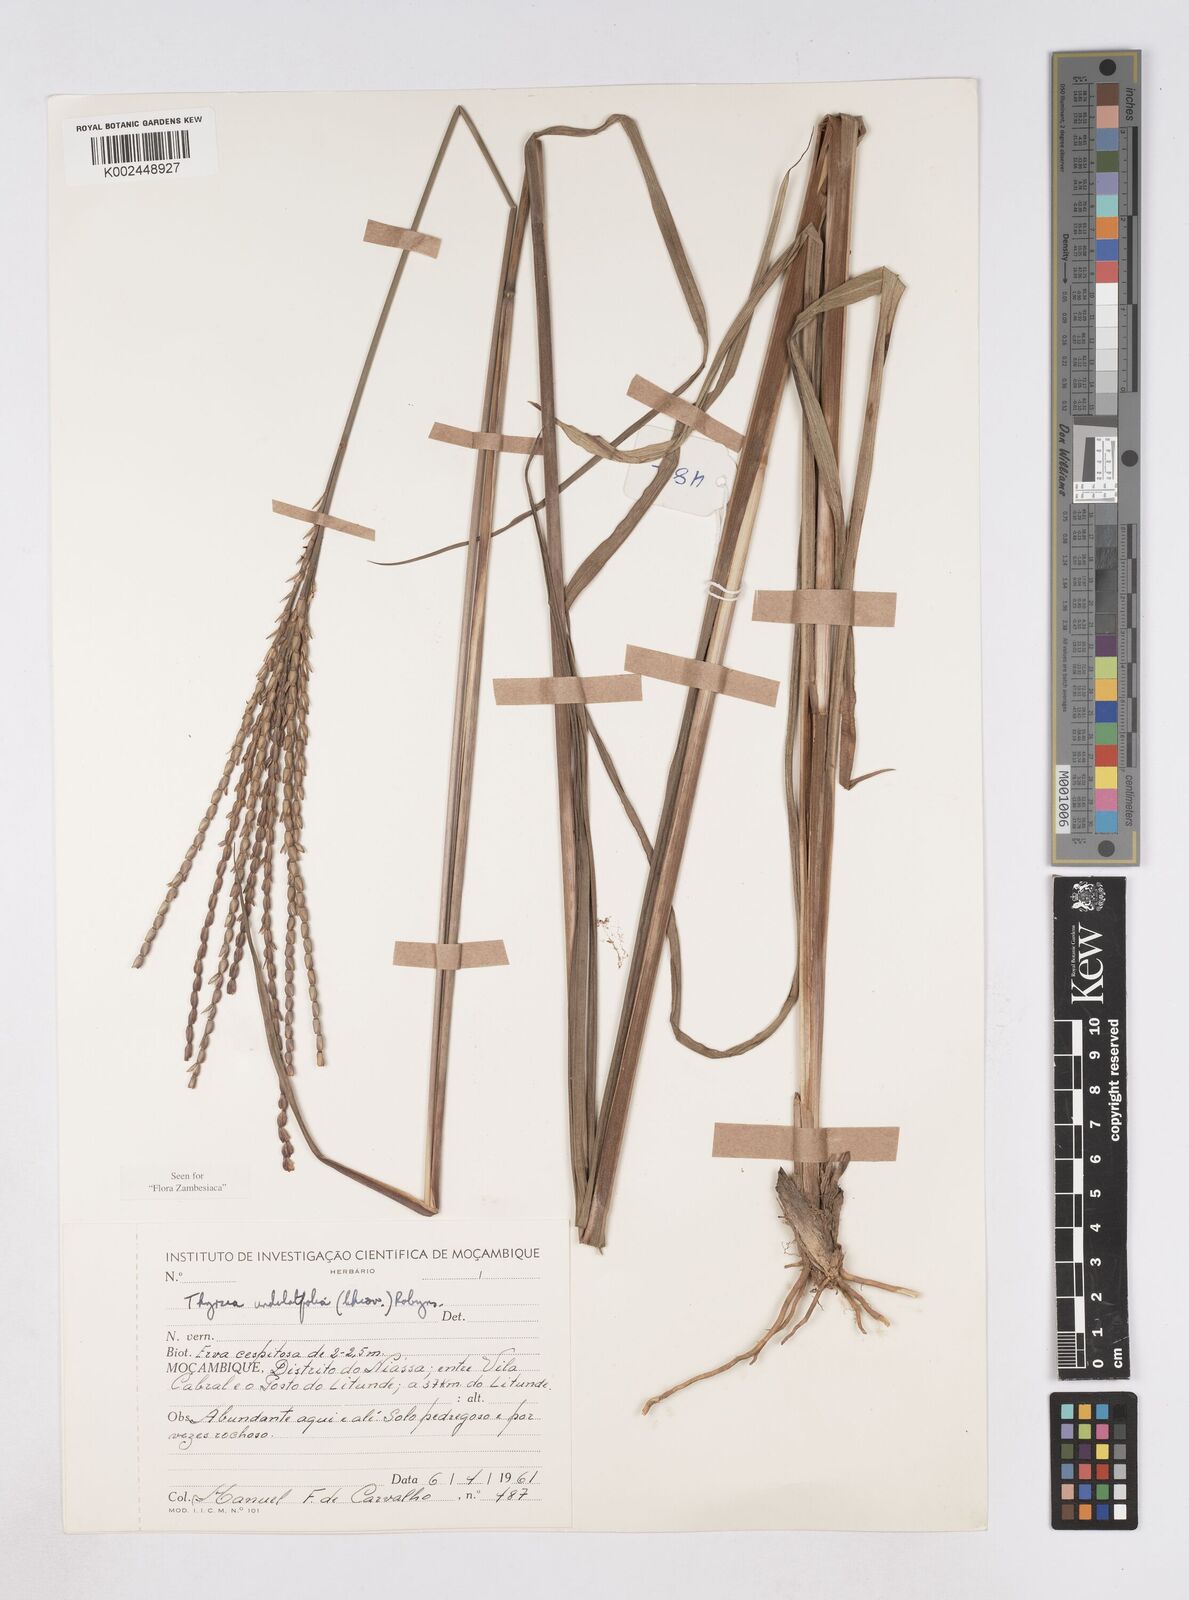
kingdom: Plantae
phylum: Tracheophyta
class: Liliopsida
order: Poales
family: Poaceae
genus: Thyrsia
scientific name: Thyrsia huillensis
